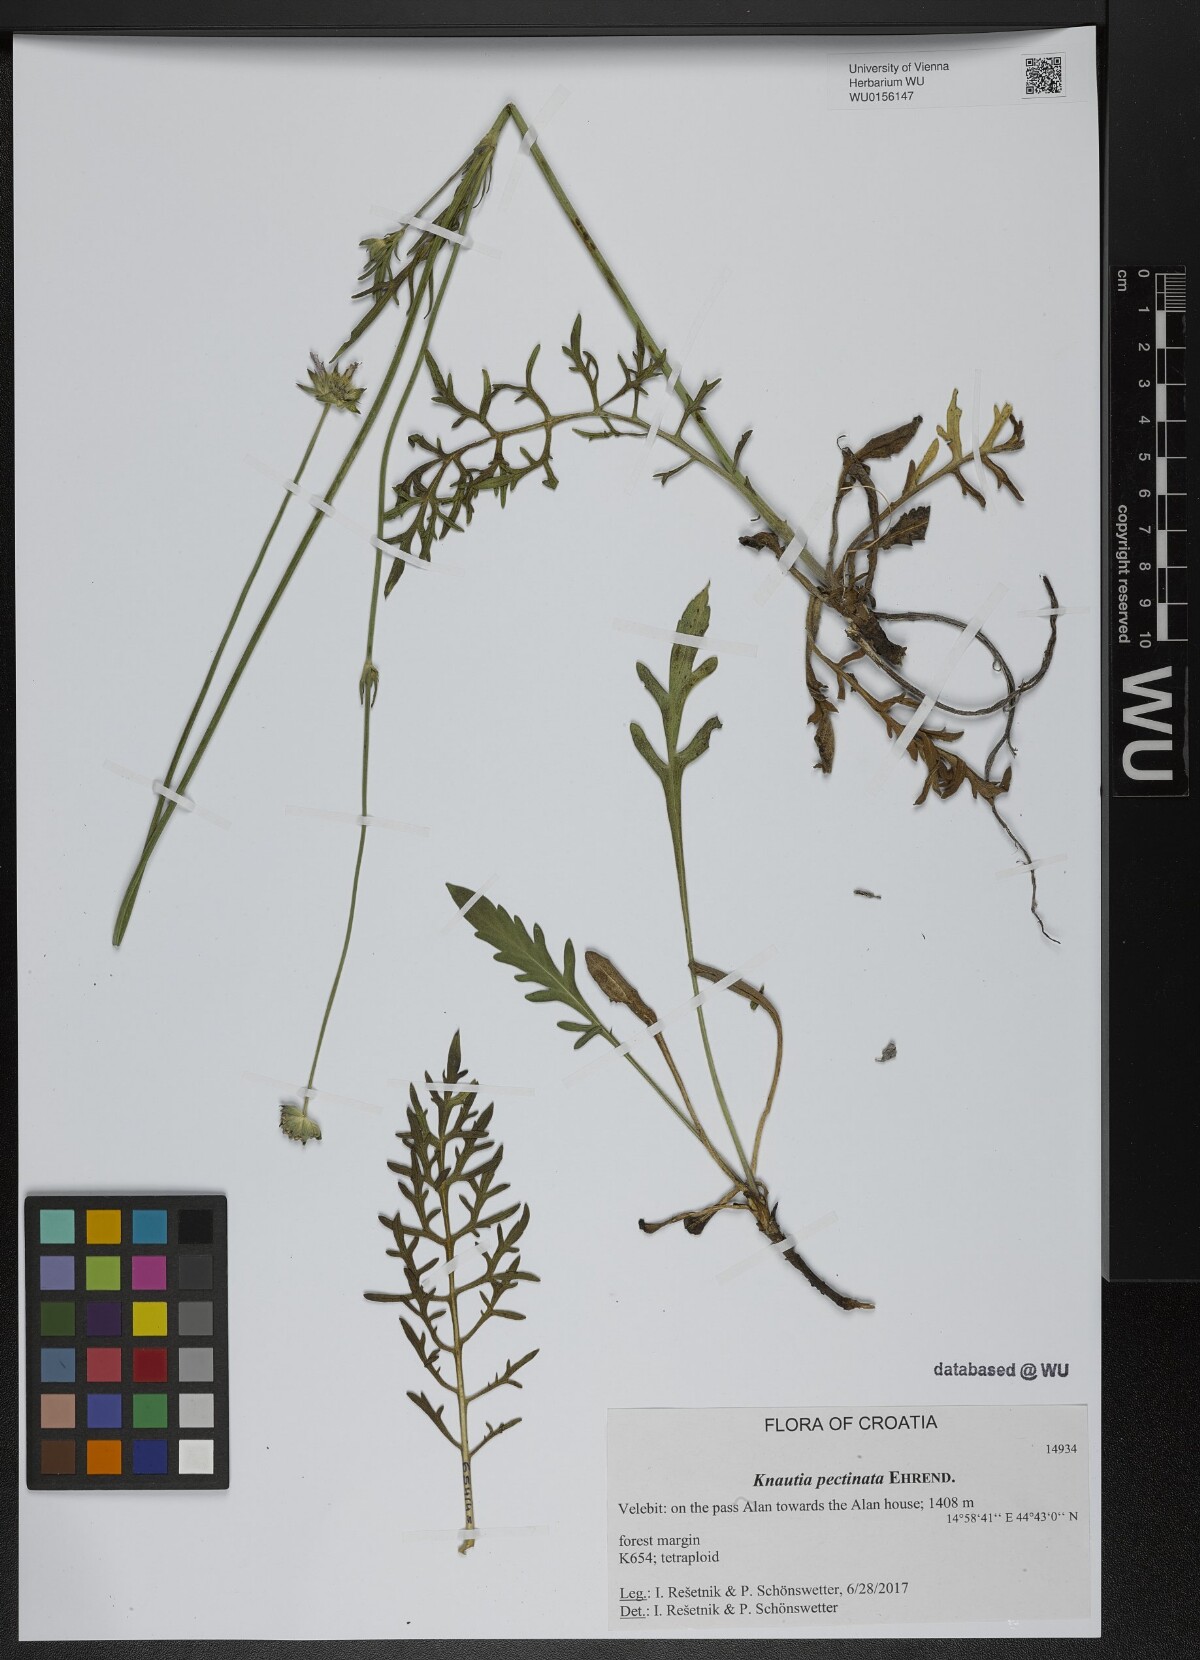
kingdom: Plantae
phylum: Tracheophyta
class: Magnoliopsida
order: Dipsacales
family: Caprifoliaceae
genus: Knautia
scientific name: Knautia pectinata
